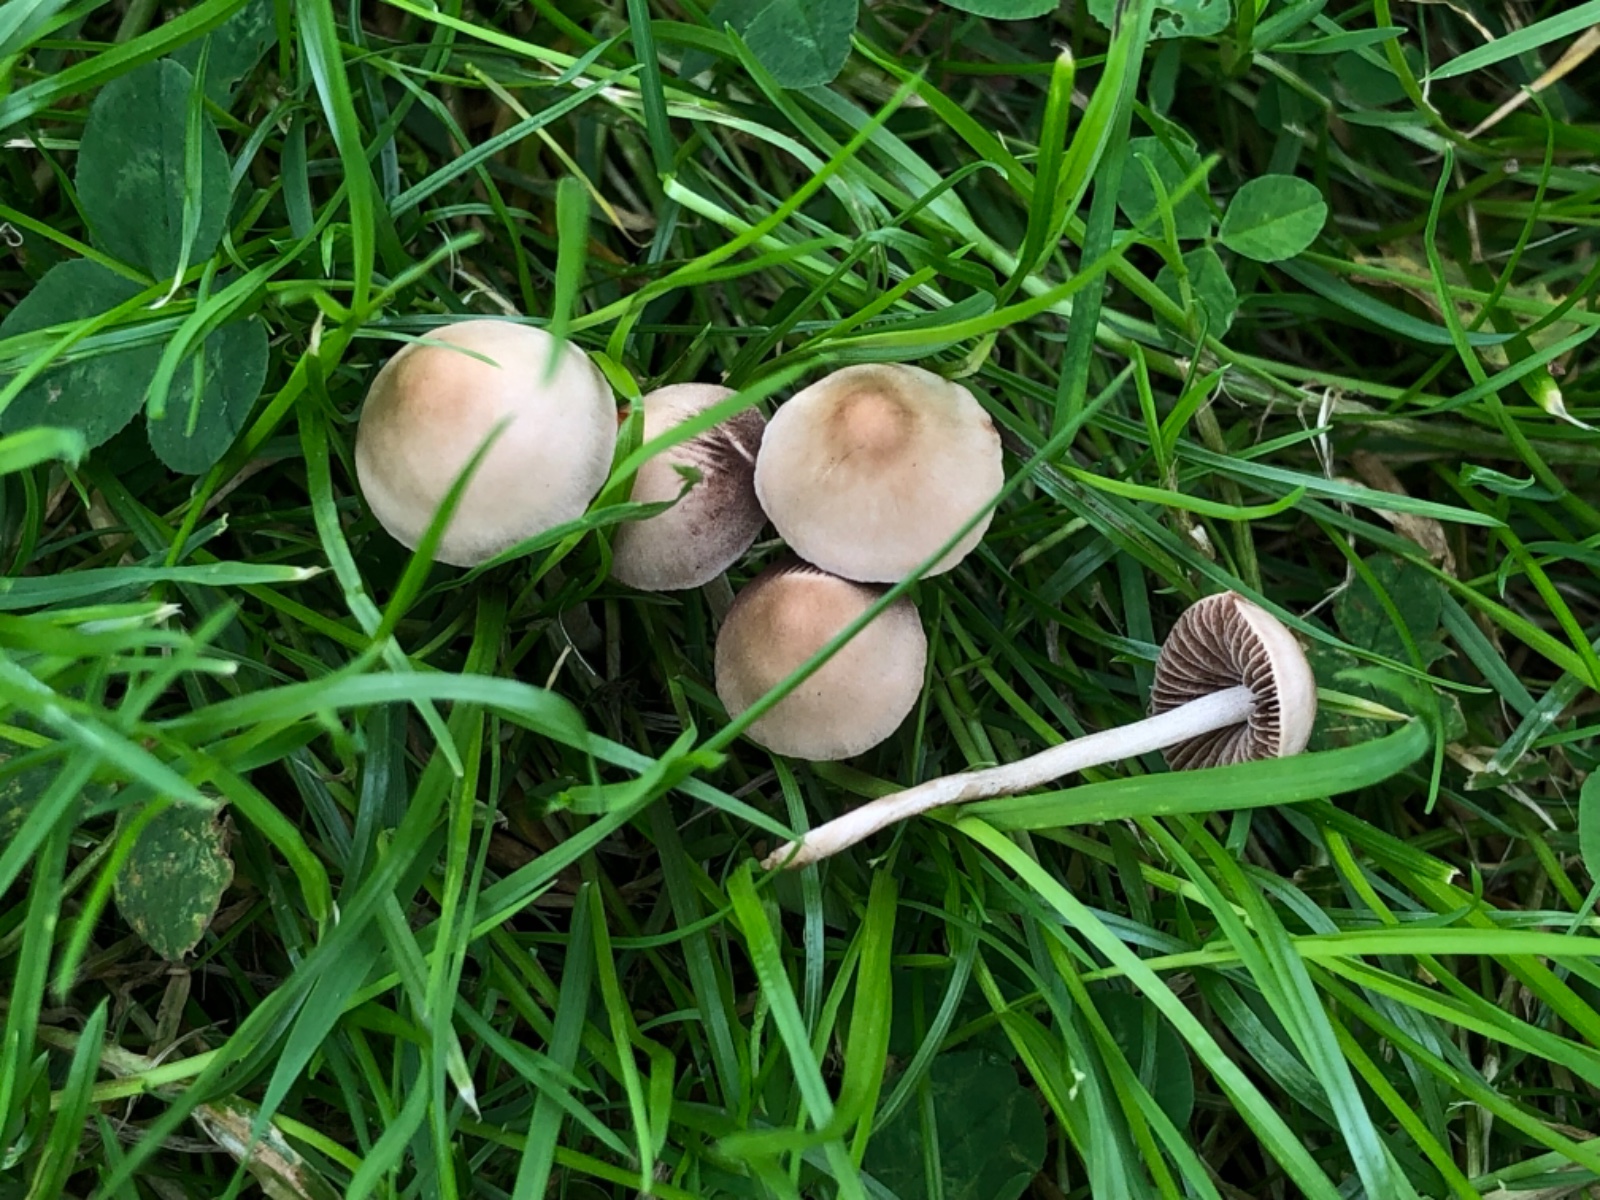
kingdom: Fungi
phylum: Basidiomycota
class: Agaricomycetes
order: Agaricales
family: Bolbitiaceae
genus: Panaeolina
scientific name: Panaeolina foenisecii
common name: høslætsvamp
